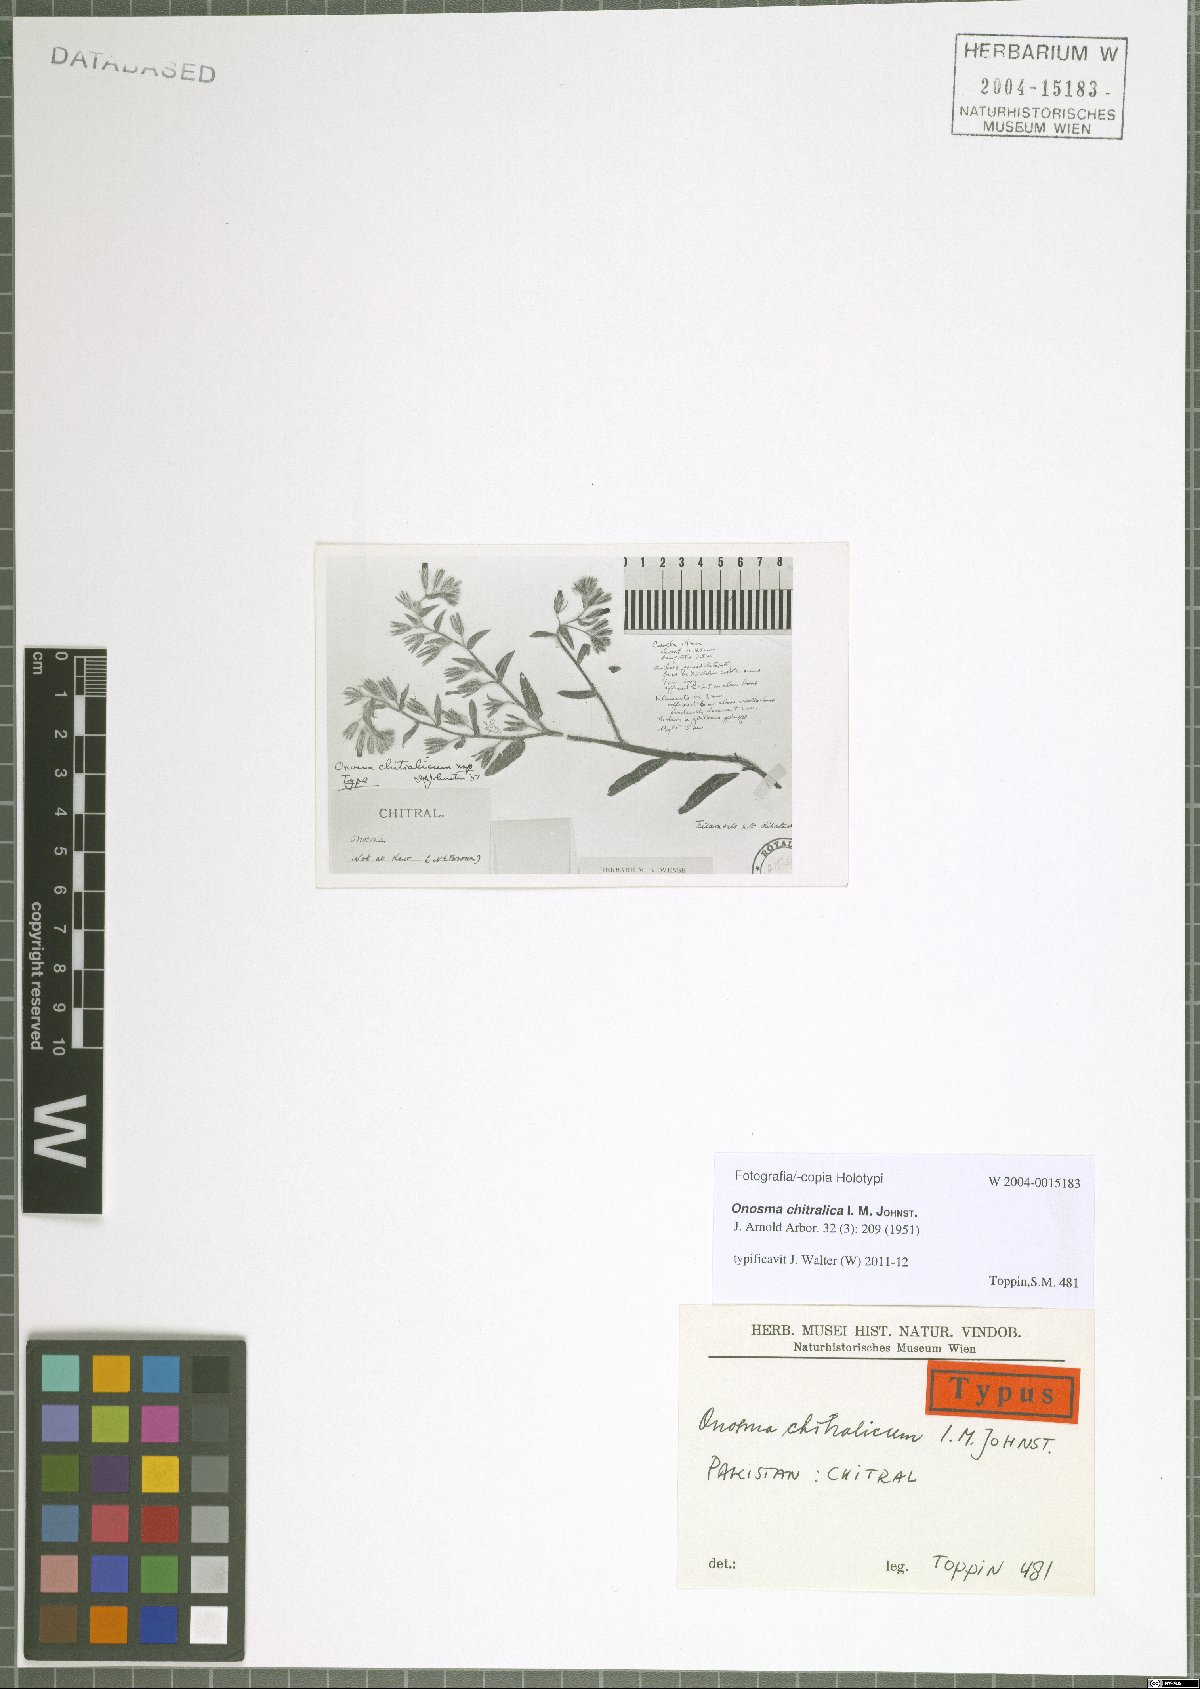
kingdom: Plantae
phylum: Tracheophyta
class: Magnoliopsida
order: Boraginales
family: Boraginaceae
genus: Onosma
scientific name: Onosma chitralica
